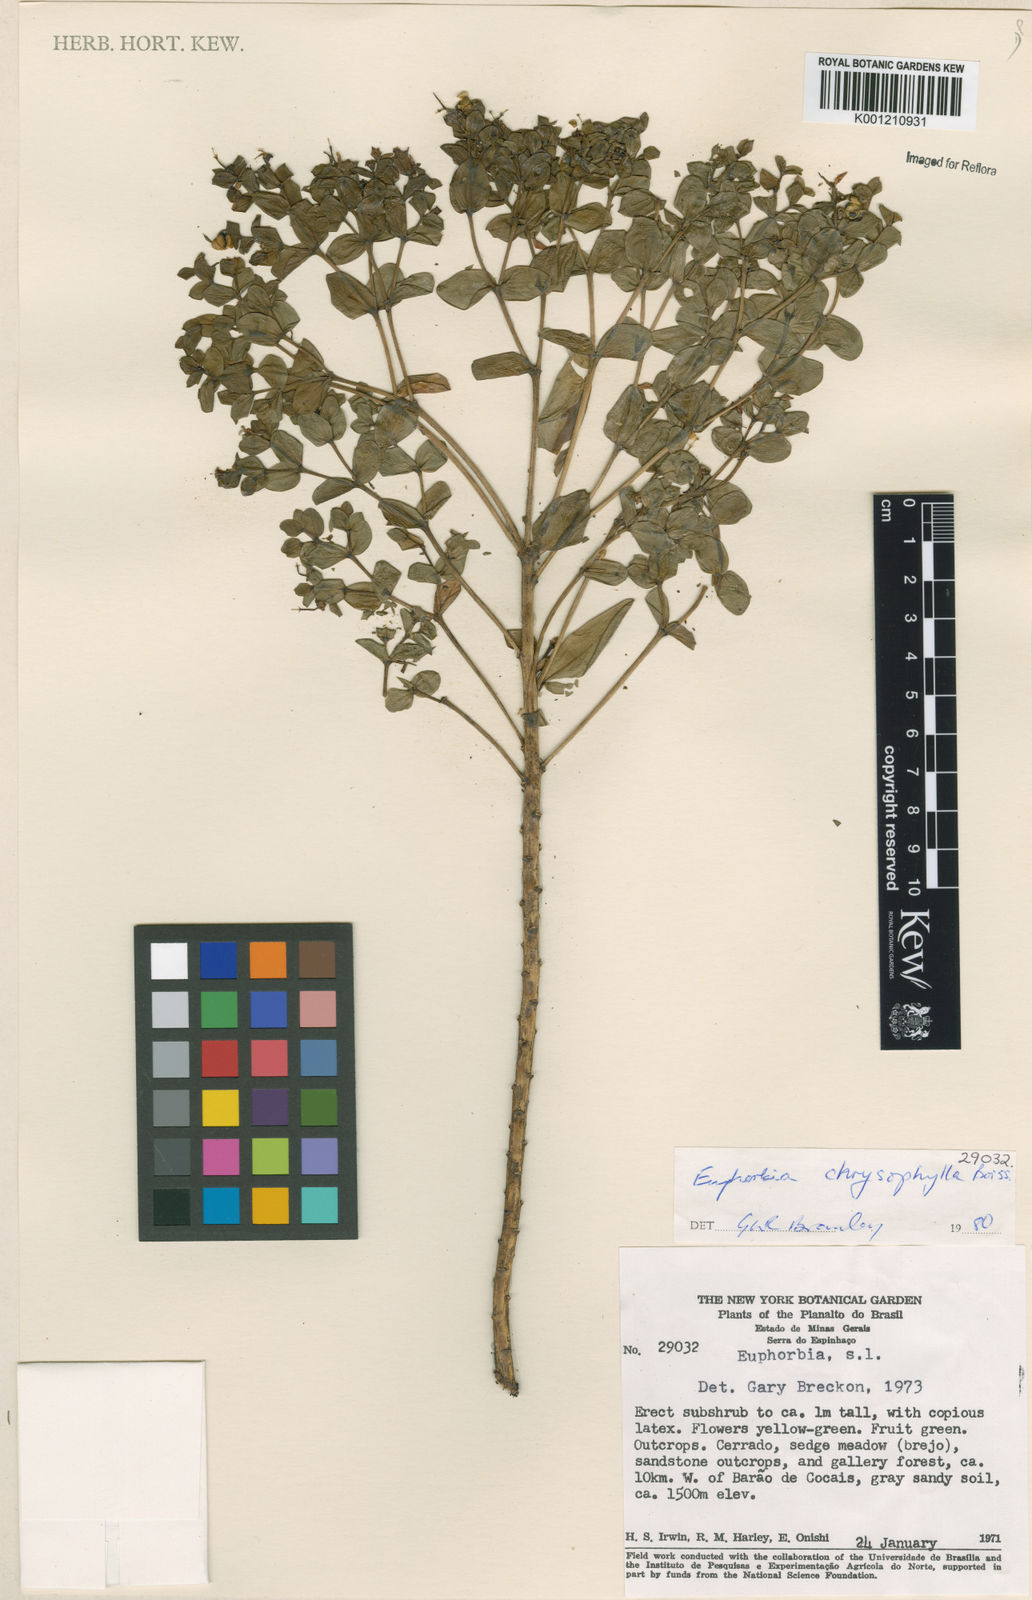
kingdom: Plantae
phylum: Tracheophyta
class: Magnoliopsida
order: Malpighiales
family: Euphorbiaceae
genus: Euphorbia
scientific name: Euphorbia chrysophylla
